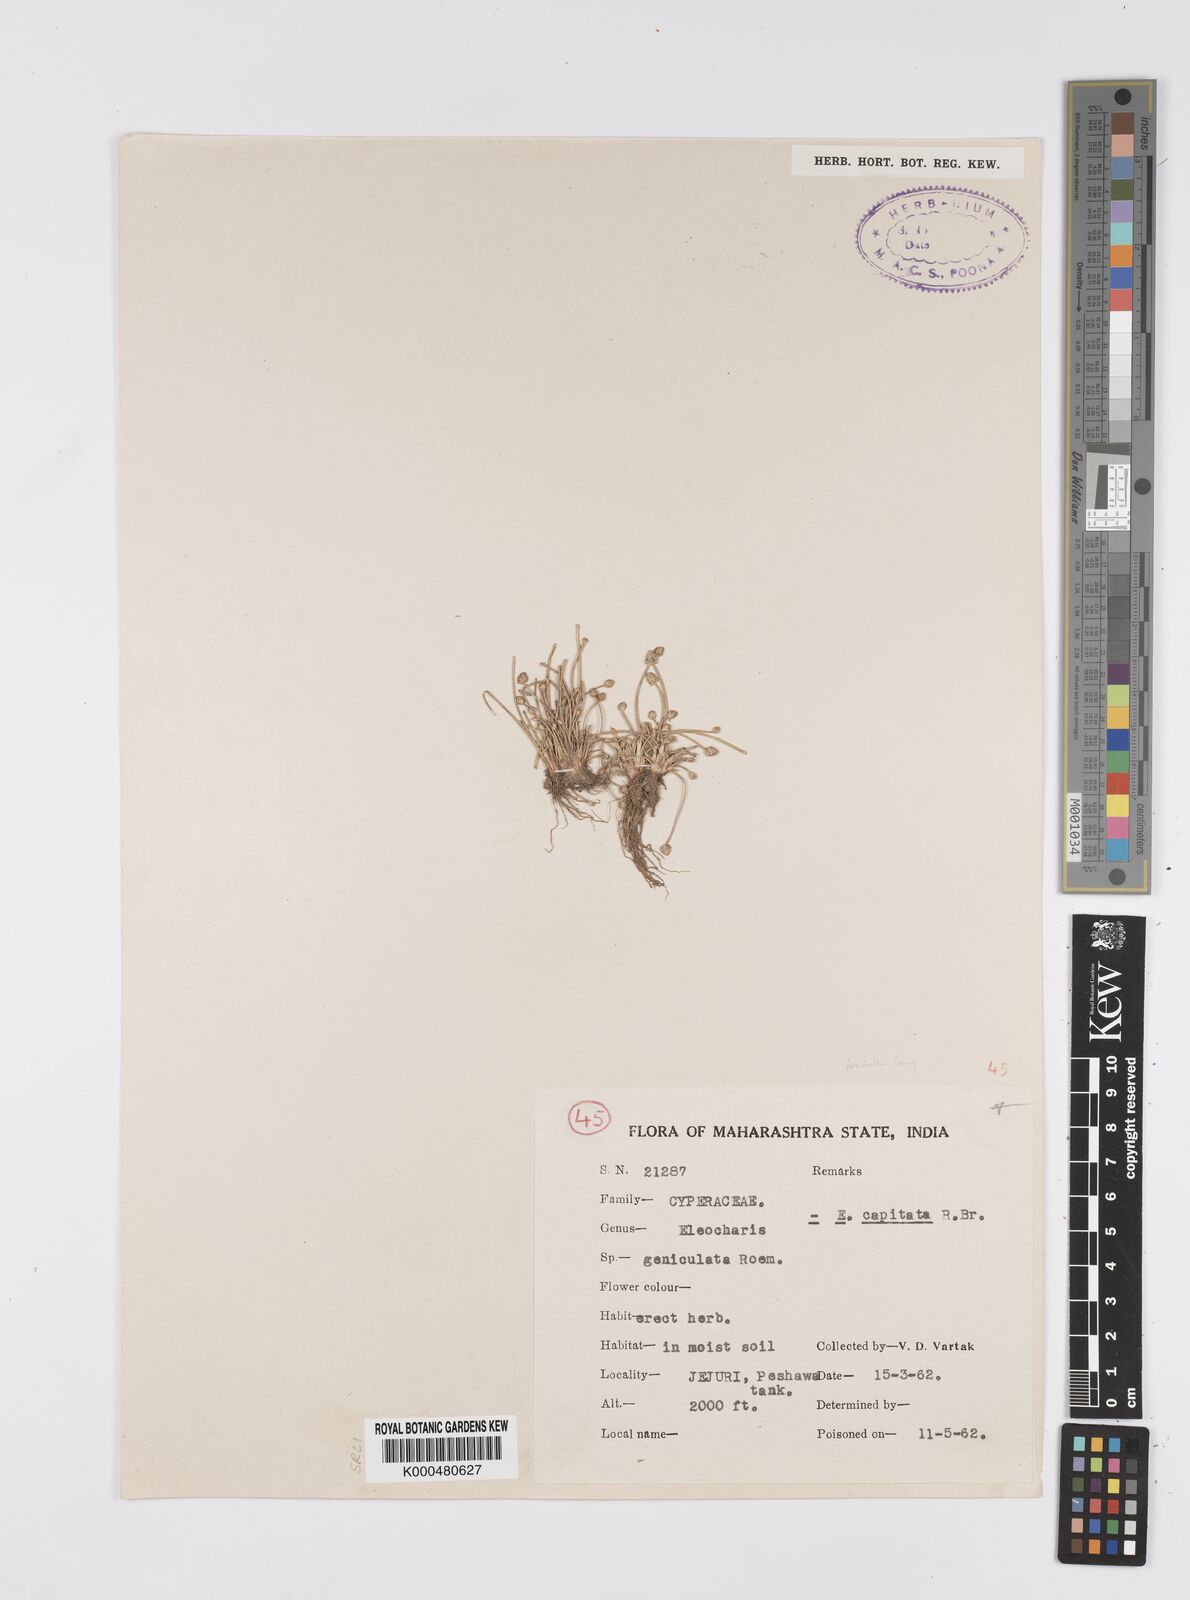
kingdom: Plantae
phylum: Tracheophyta
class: Liliopsida
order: Poales
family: Cyperaceae
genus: Eleocharis
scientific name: Eleocharis geniculata
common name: Canada spikesedge
